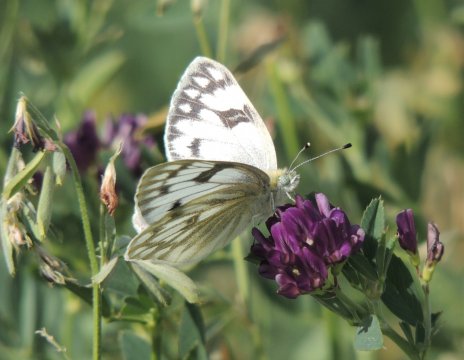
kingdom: Animalia
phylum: Arthropoda
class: Insecta
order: Lepidoptera
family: Pieridae
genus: Pontia
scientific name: Pontia occidentalis
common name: Western White
